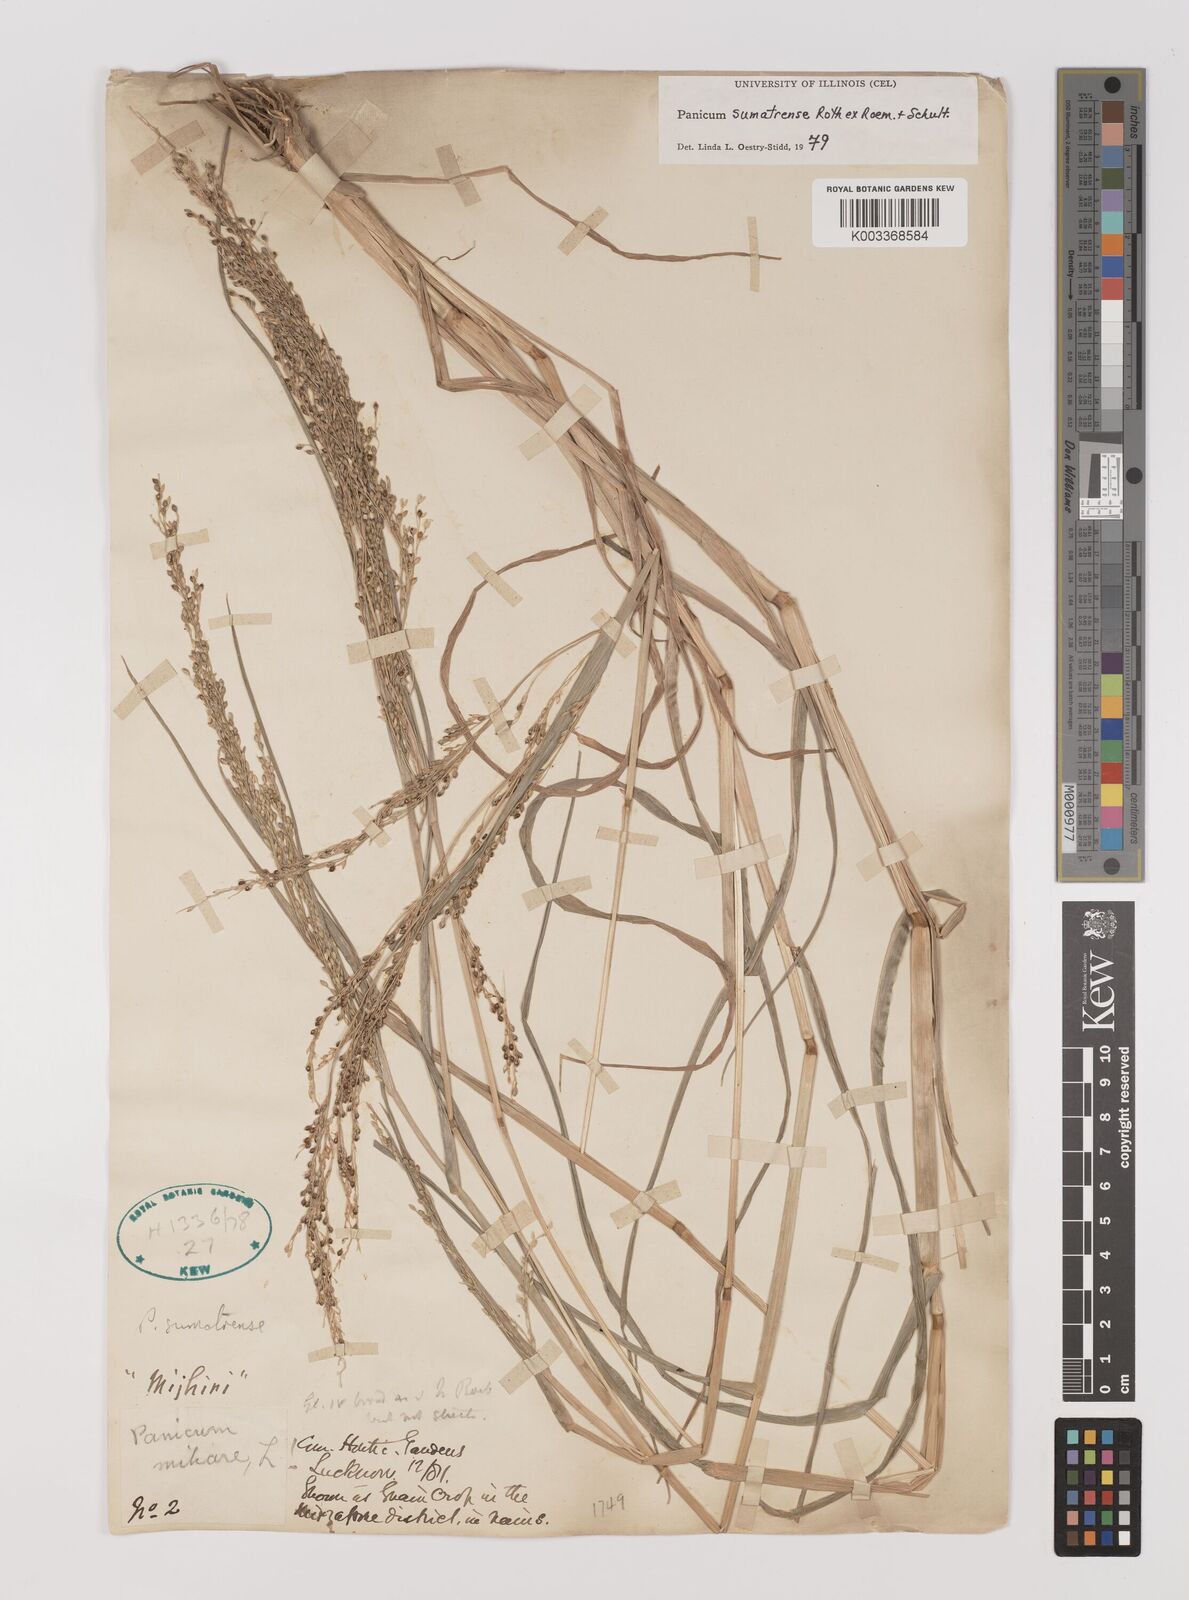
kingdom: Plantae
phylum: Tracheophyta
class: Liliopsida
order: Poales
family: Poaceae
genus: Panicum
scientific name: Panicum sumatrense
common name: Little millet
